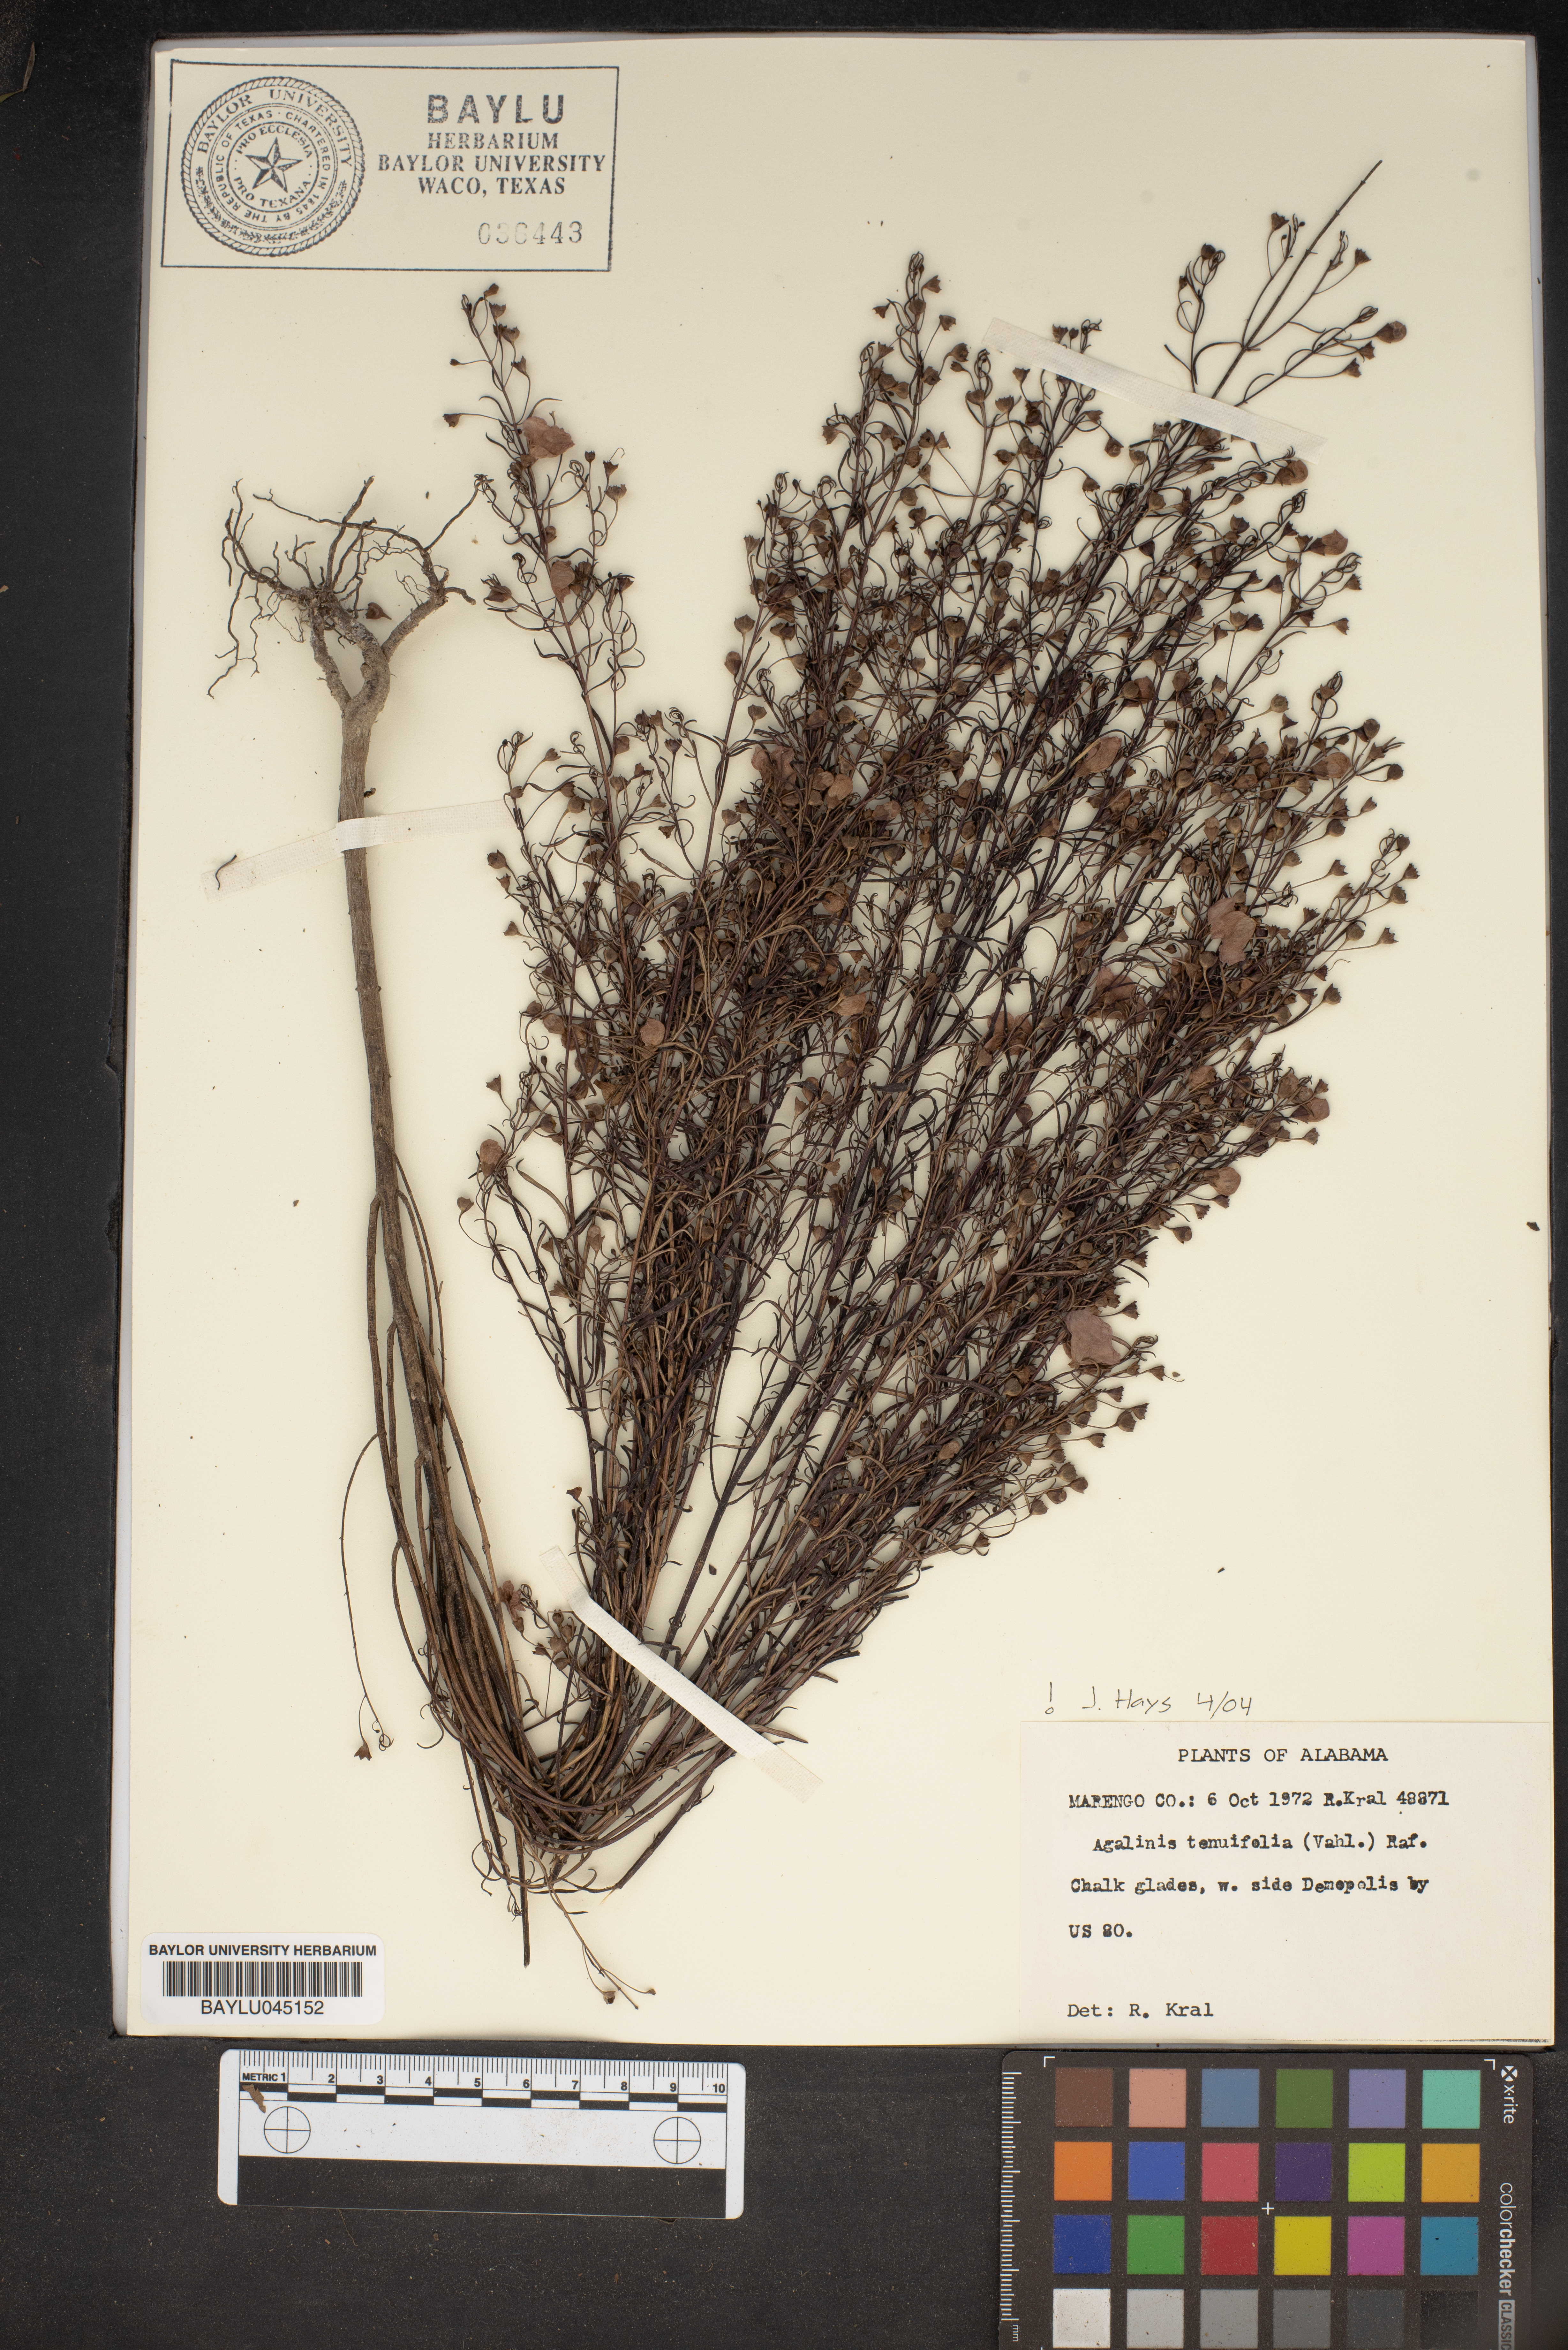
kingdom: Plantae
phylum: Tracheophyta
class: Magnoliopsida
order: Lamiales
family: Orobanchaceae
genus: Agalinis
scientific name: Agalinis tenuifolia
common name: Slender agalinis
